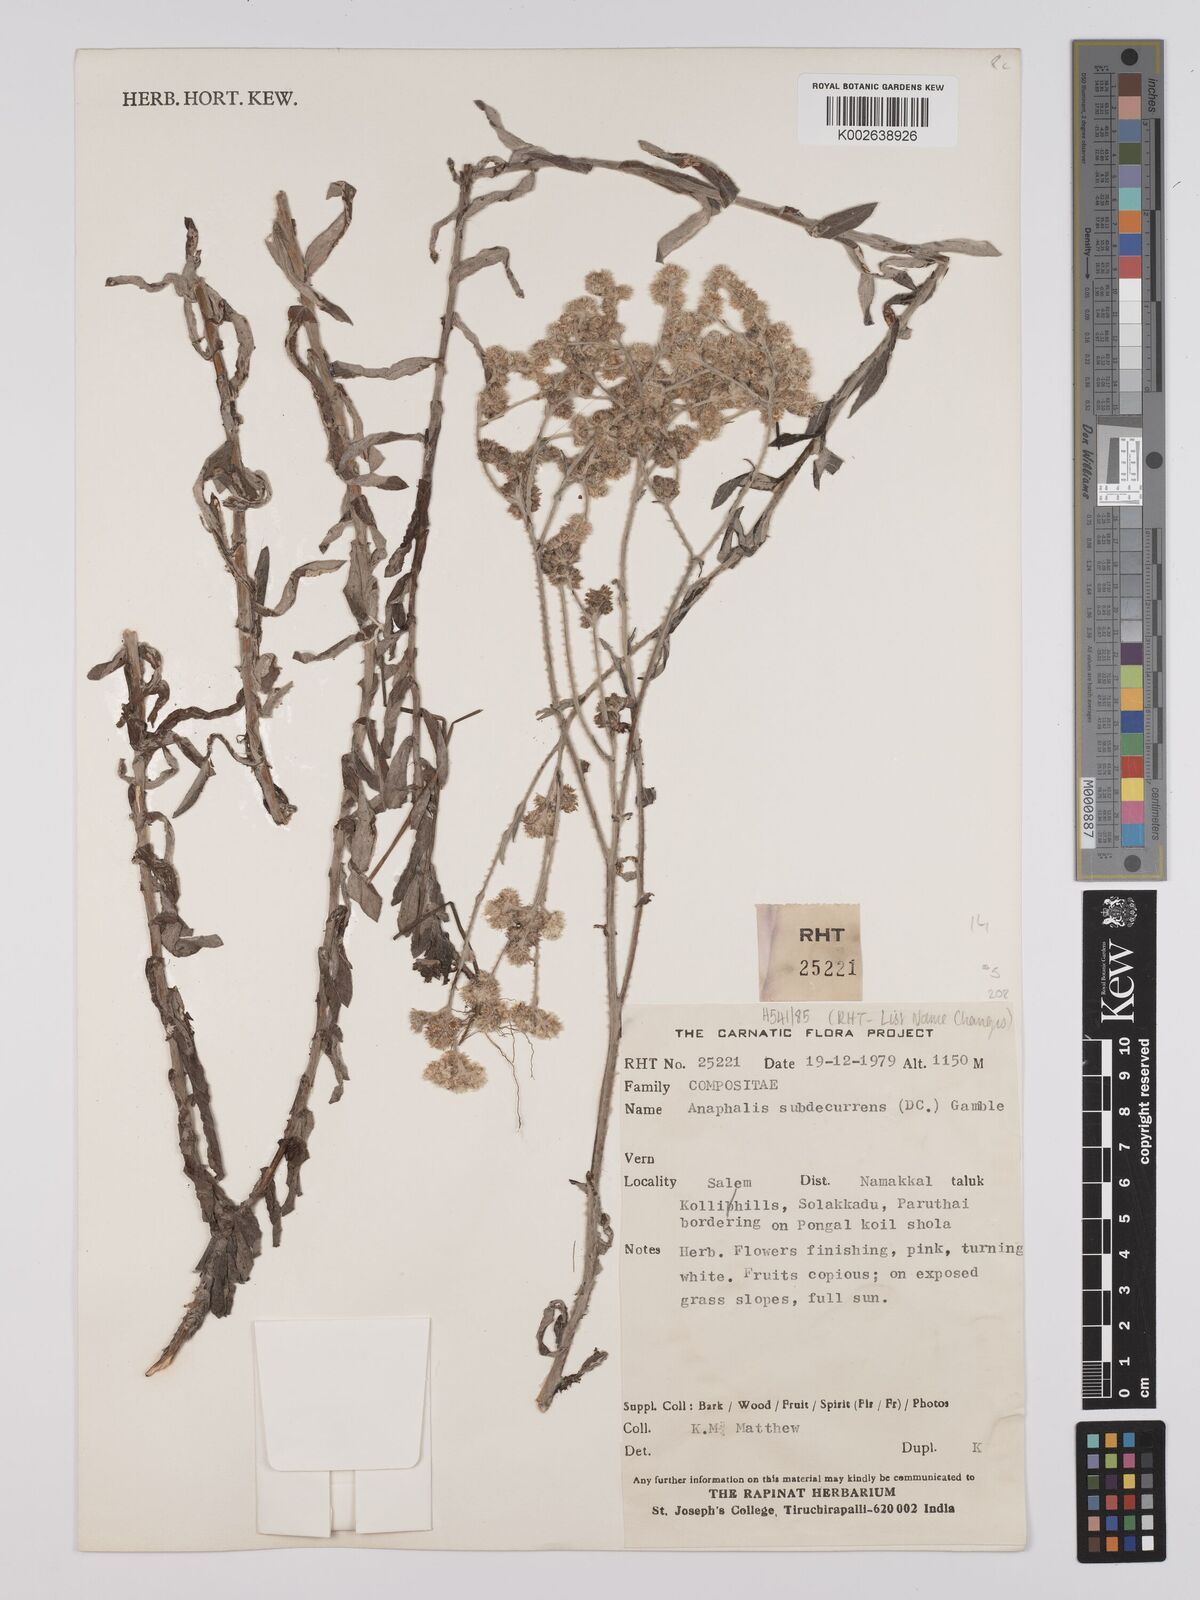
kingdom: Plantae
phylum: Tracheophyta
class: Magnoliopsida
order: Asterales
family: Asteraceae
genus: Anaphalis
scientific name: Anaphalis lawii
